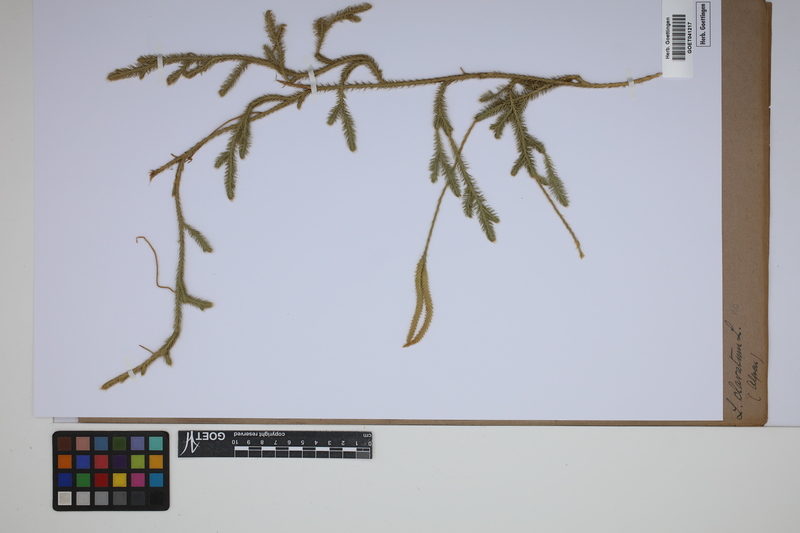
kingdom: Plantae
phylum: Tracheophyta
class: Lycopodiopsida
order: Lycopodiales
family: Lycopodiaceae
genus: Lycopodium
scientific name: Lycopodium clavatum
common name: Stag's-horn clubmoss
